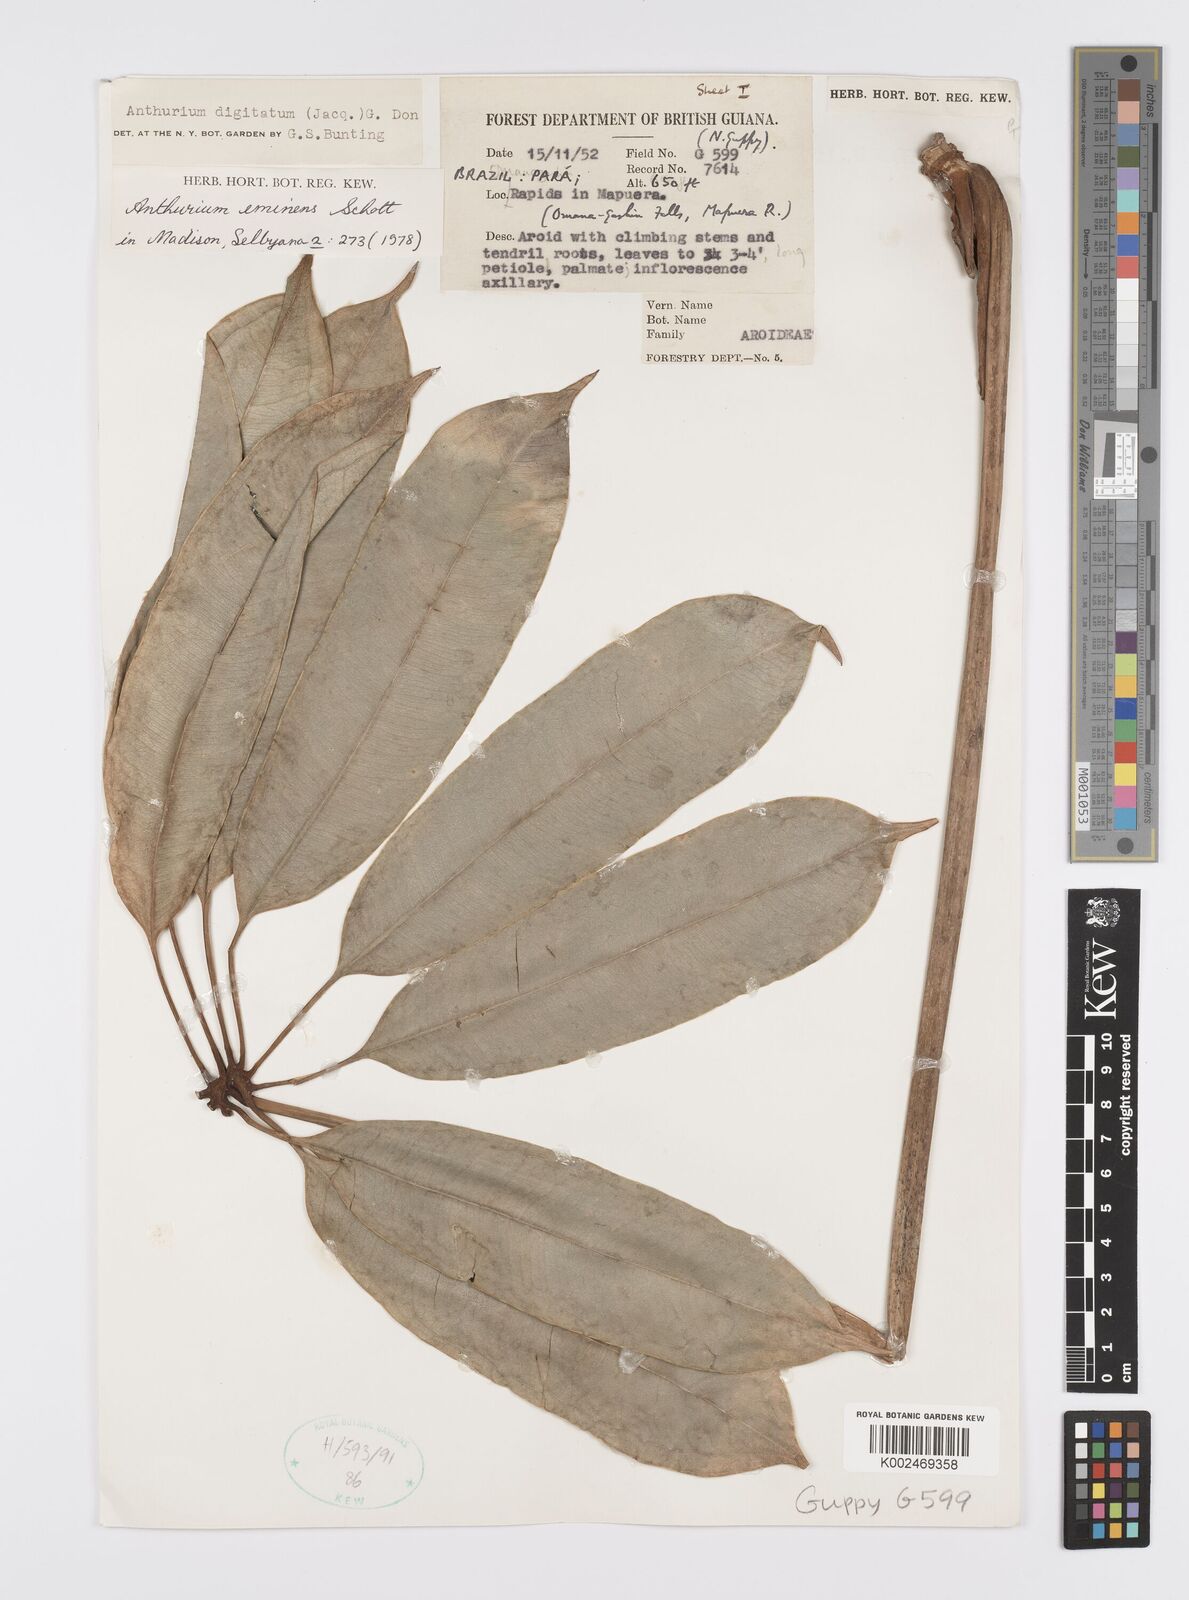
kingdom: Plantae
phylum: Tracheophyta
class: Liliopsida
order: Alismatales
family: Araceae
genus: Anthurium
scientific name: Anthurium eminens
